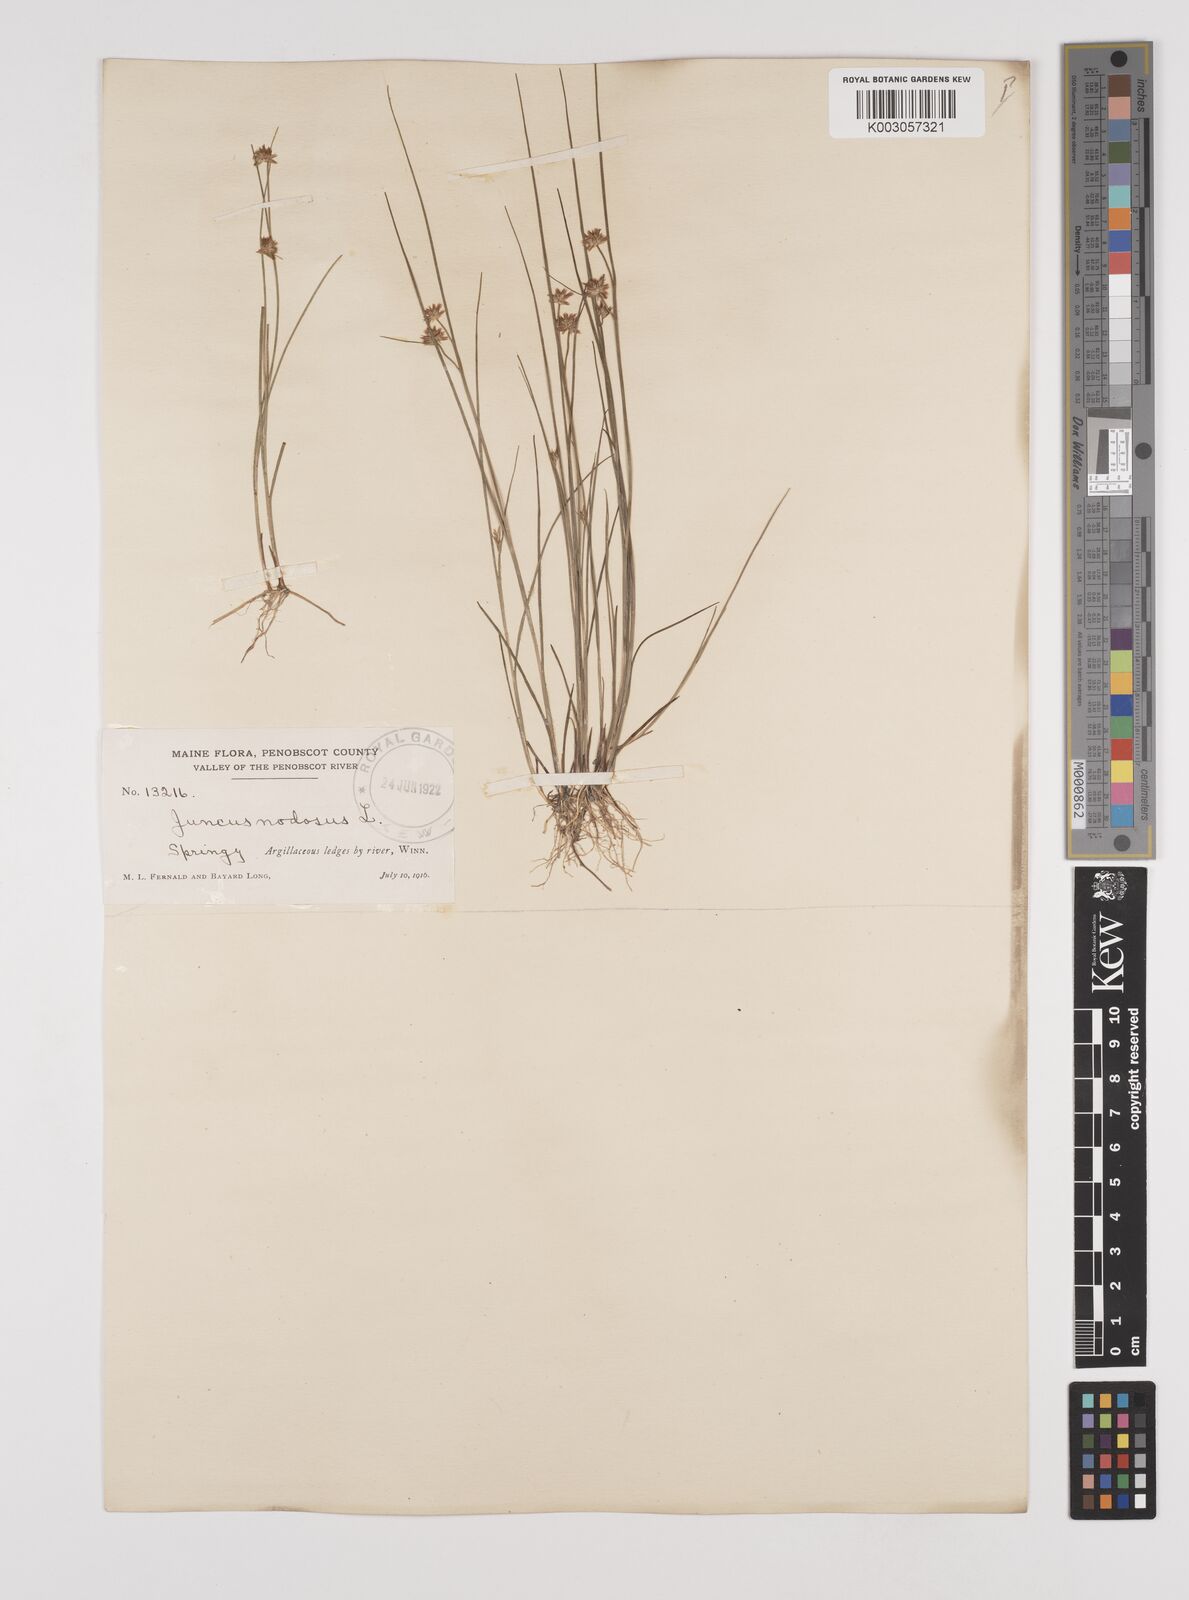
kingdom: Plantae
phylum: Tracheophyta
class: Liliopsida
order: Poales
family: Juncaceae
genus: Juncus
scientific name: Juncus nodosus
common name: Knotted rush
